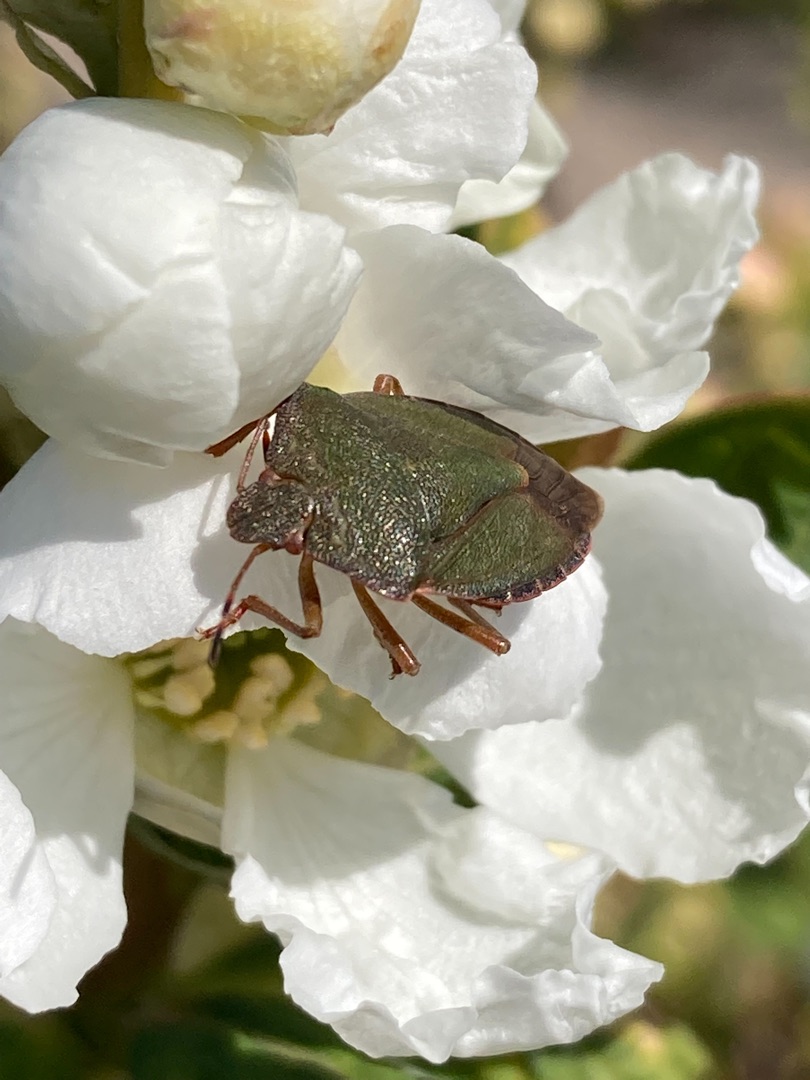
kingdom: Animalia
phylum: Arthropoda
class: Insecta
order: Hemiptera
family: Pentatomidae
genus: Palomena
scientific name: Palomena prasina
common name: Grøn bredtæge
